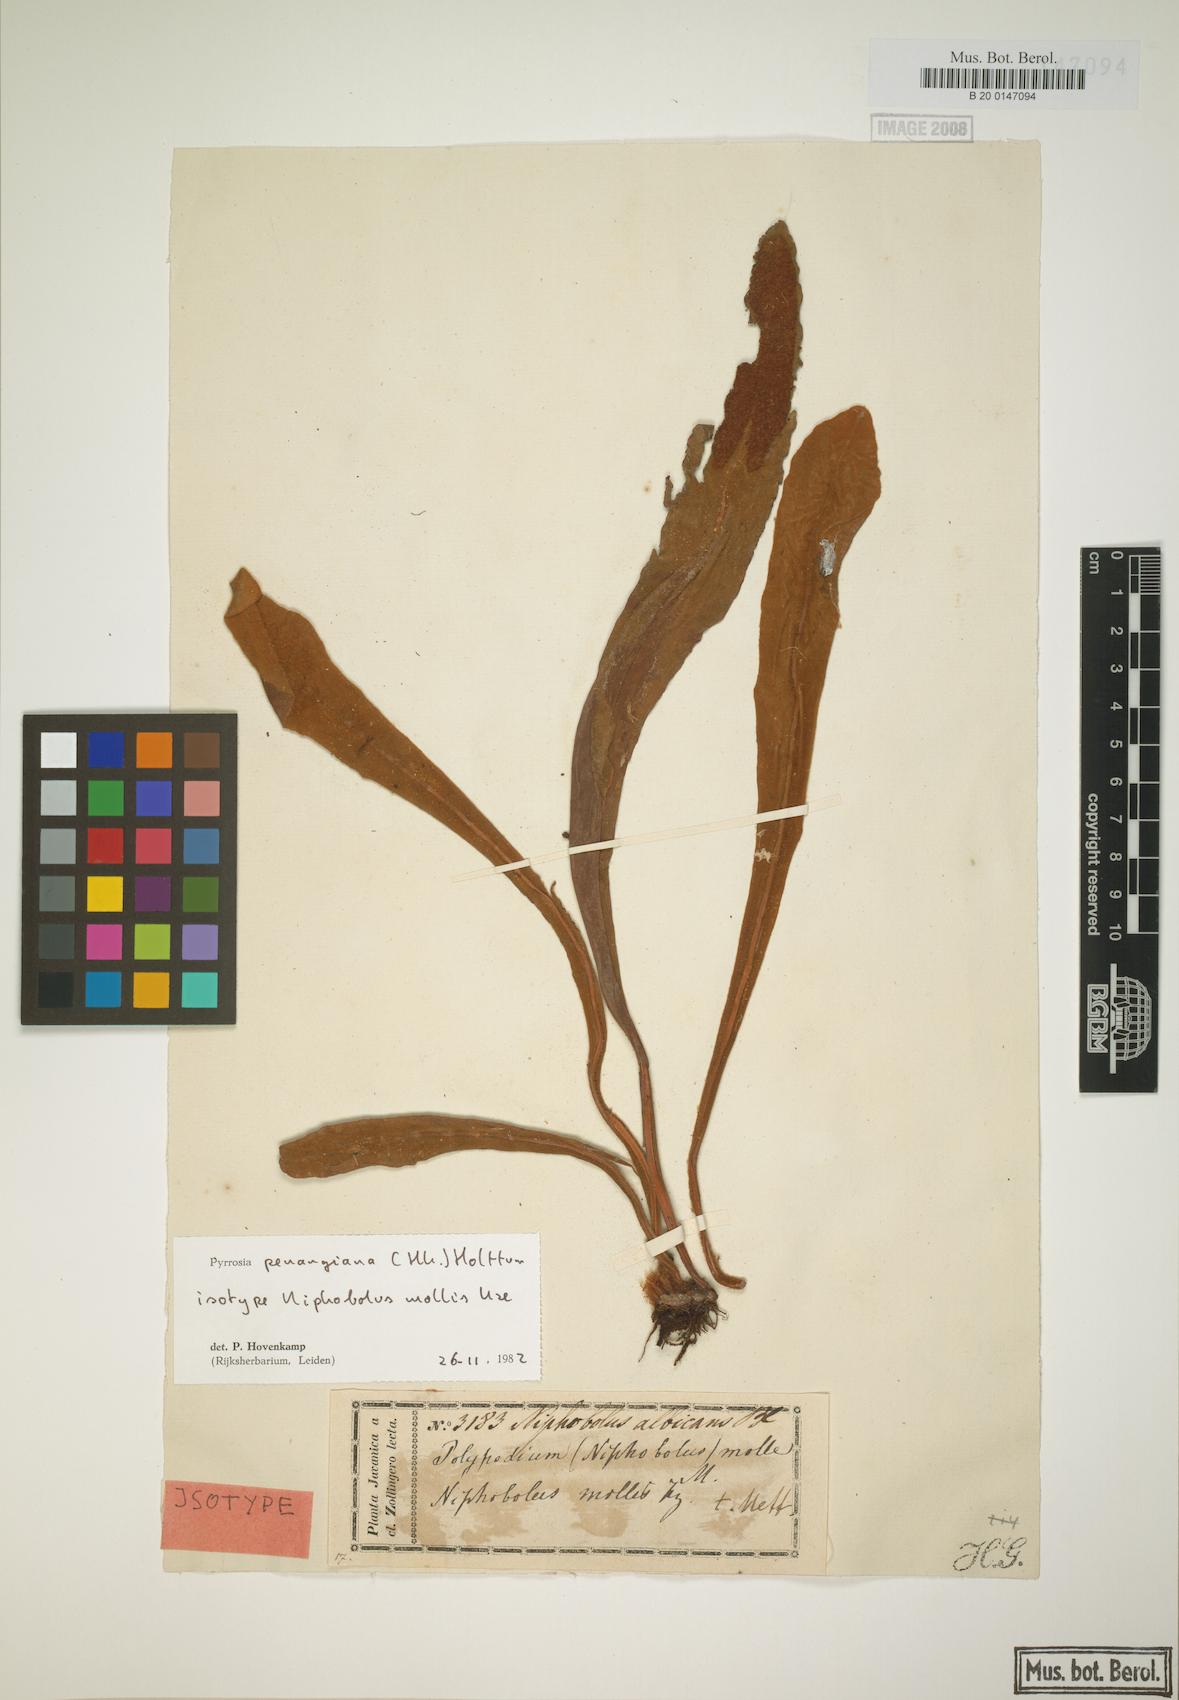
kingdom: Plantae
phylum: Tracheophyta
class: Polypodiopsida
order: Polypodiales
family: Polypodiaceae
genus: Pyrrosia
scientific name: Pyrrosia penangiana
